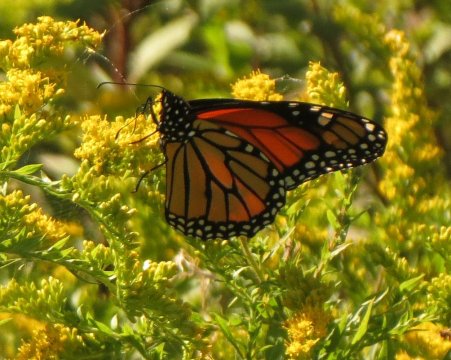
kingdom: Animalia
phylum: Arthropoda
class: Insecta
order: Lepidoptera
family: Nymphalidae
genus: Danaus
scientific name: Danaus plexippus
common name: Monarch
